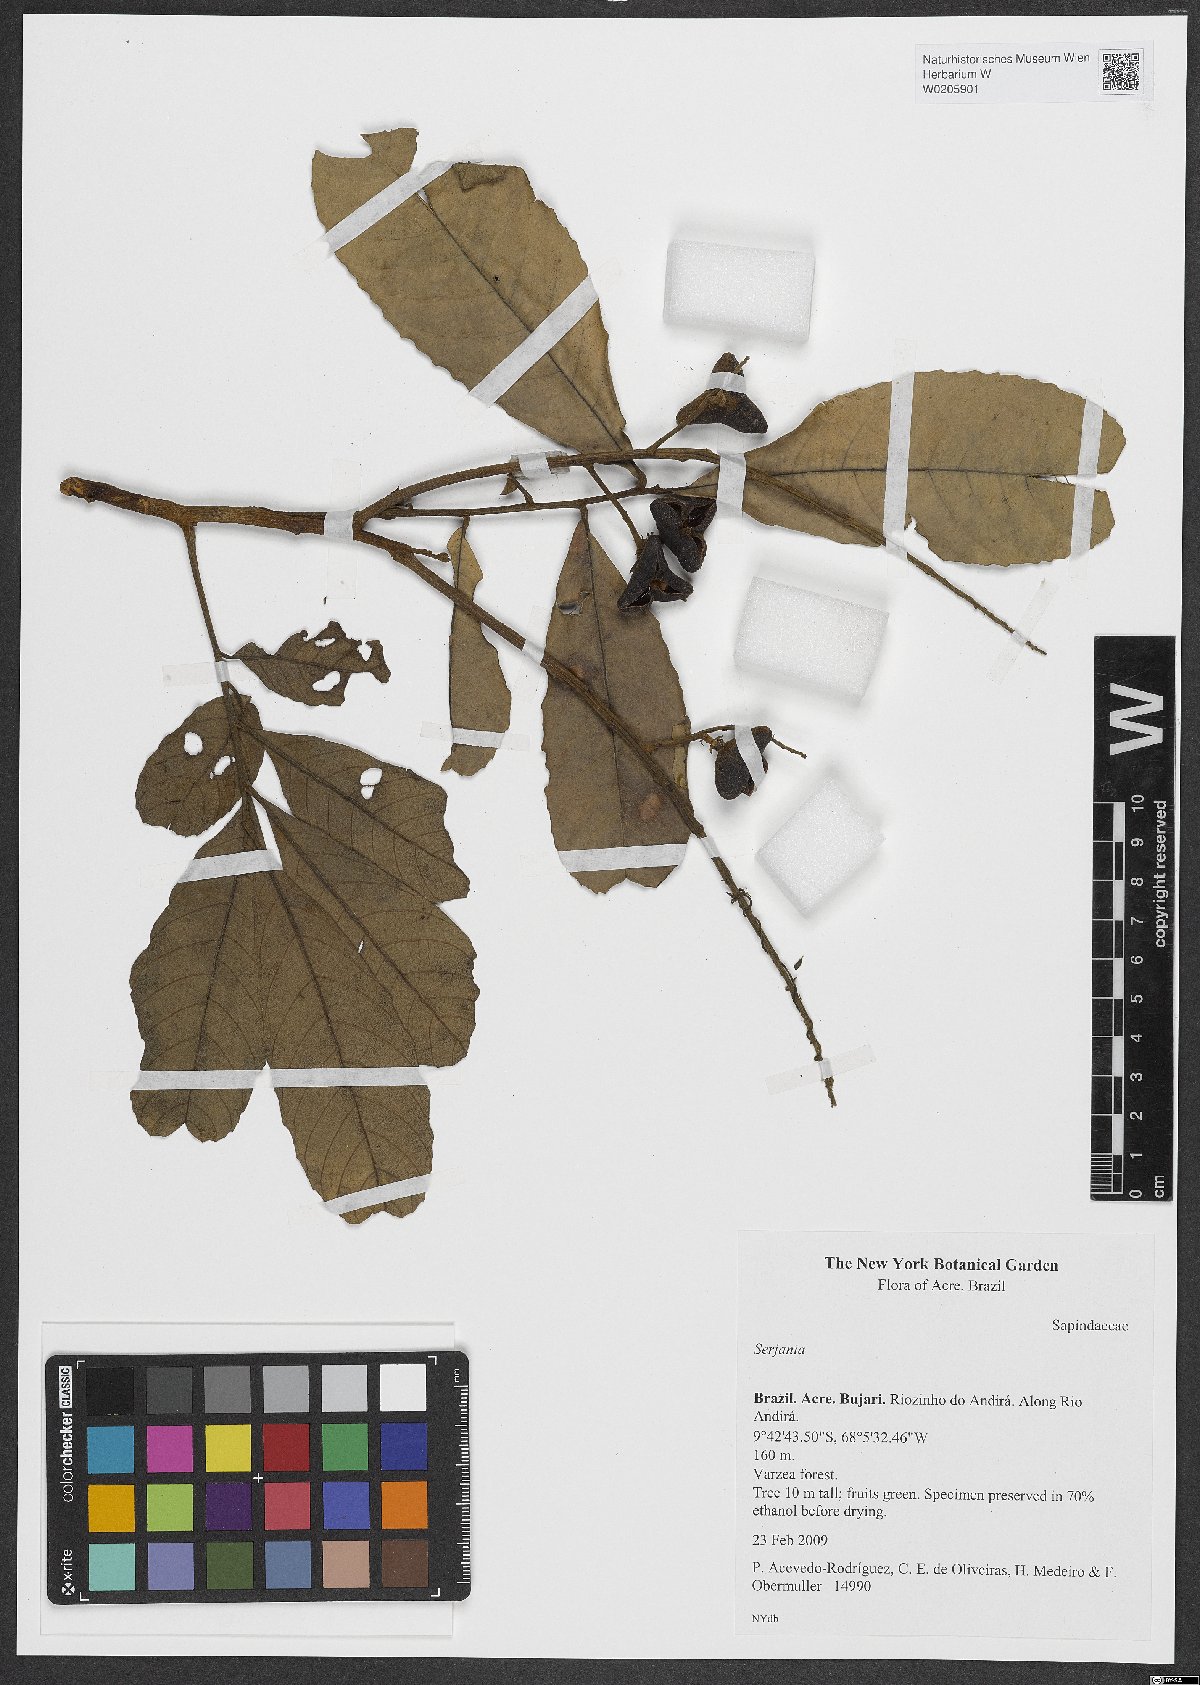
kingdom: Plantae
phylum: Tracheophyta
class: Magnoliopsida
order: Sapindales
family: Sapindaceae
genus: Serjania
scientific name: Serjania
